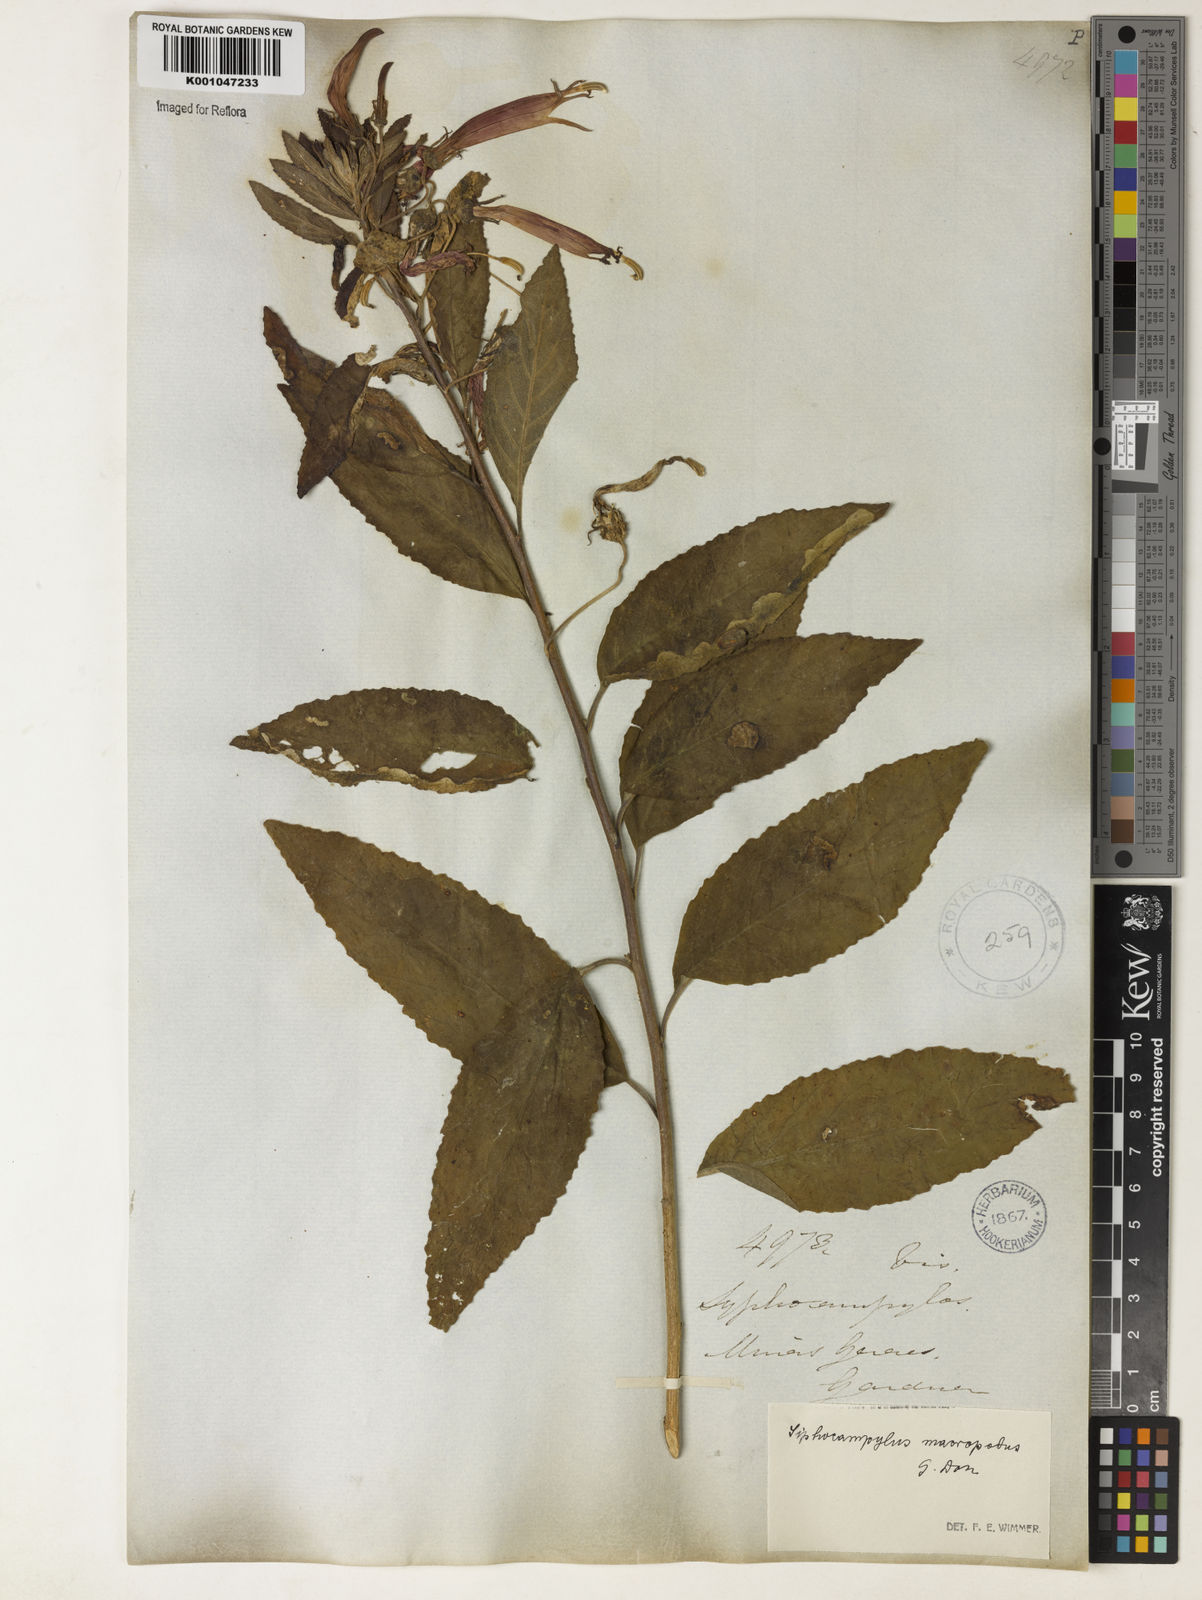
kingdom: Plantae
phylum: Tracheophyta
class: Magnoliopsida
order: Asterales
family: Campanulaceae
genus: Siphocampylus
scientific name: Siphocampylus macropodus
